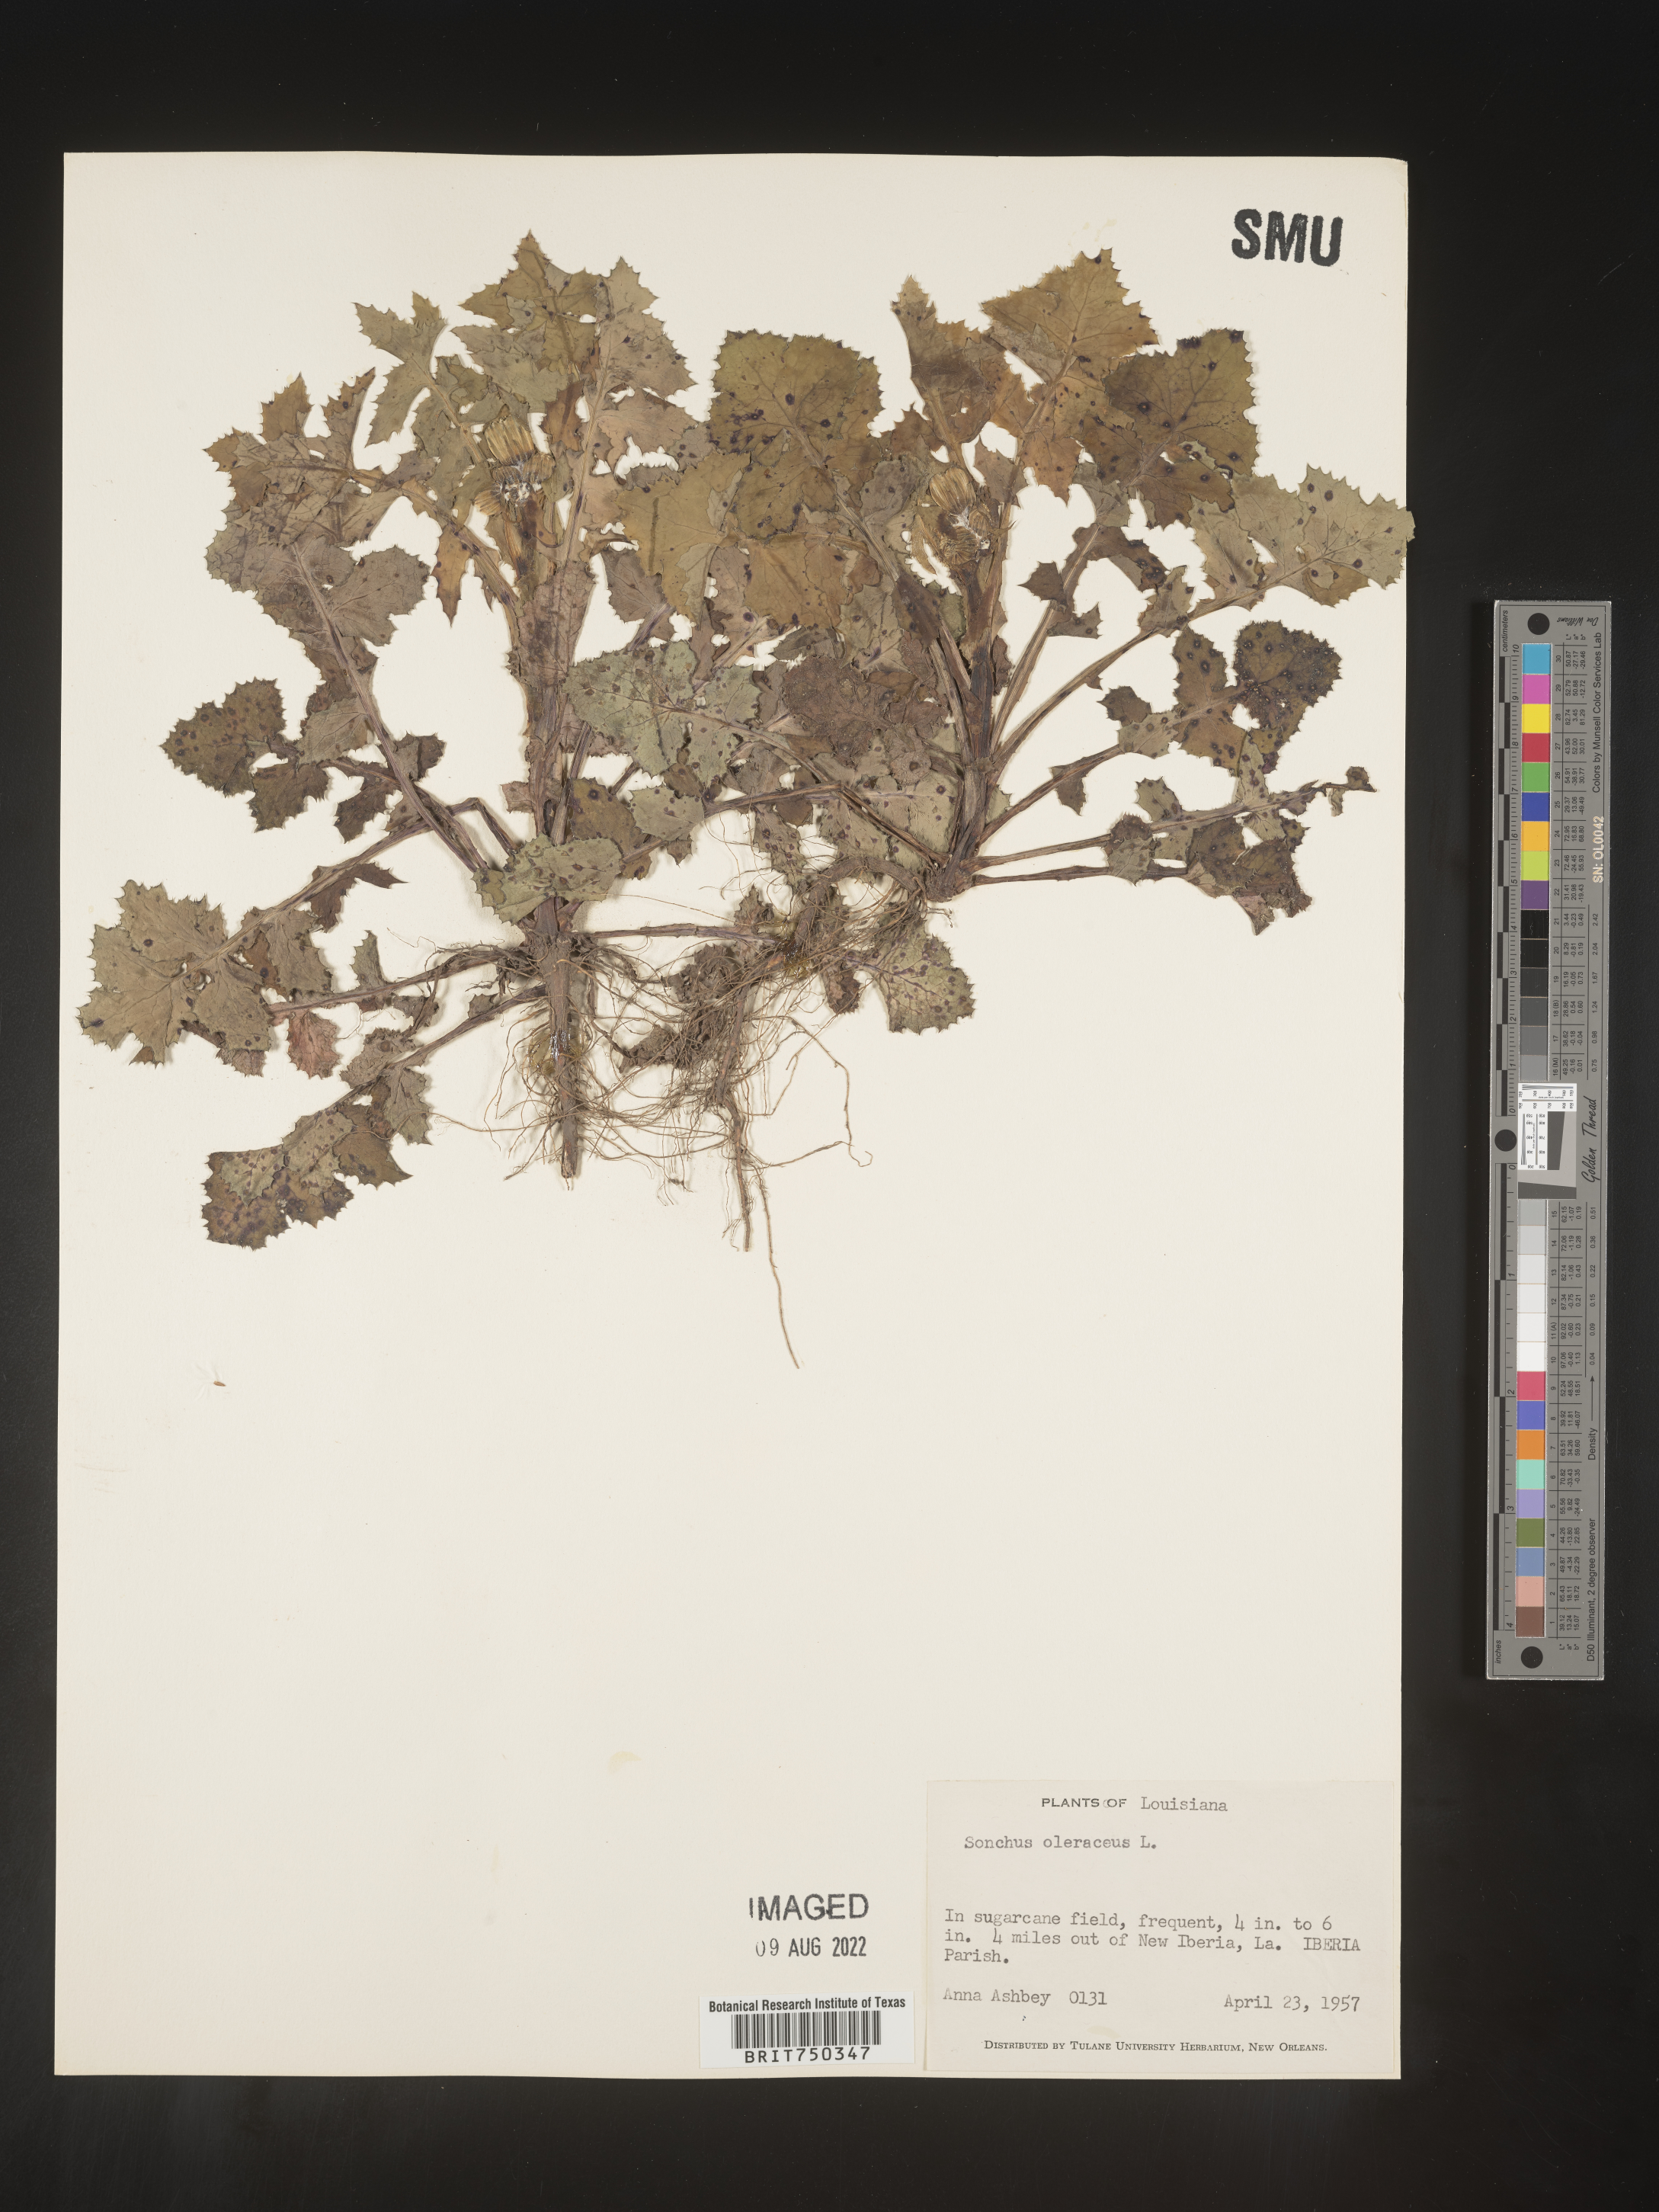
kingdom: Plantae
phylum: Tracheophyta
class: Magnoliopsida
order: Asterales
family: Asteraceae
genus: Sonchus
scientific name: Sonchus oleraceus
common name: Common sowthistle
